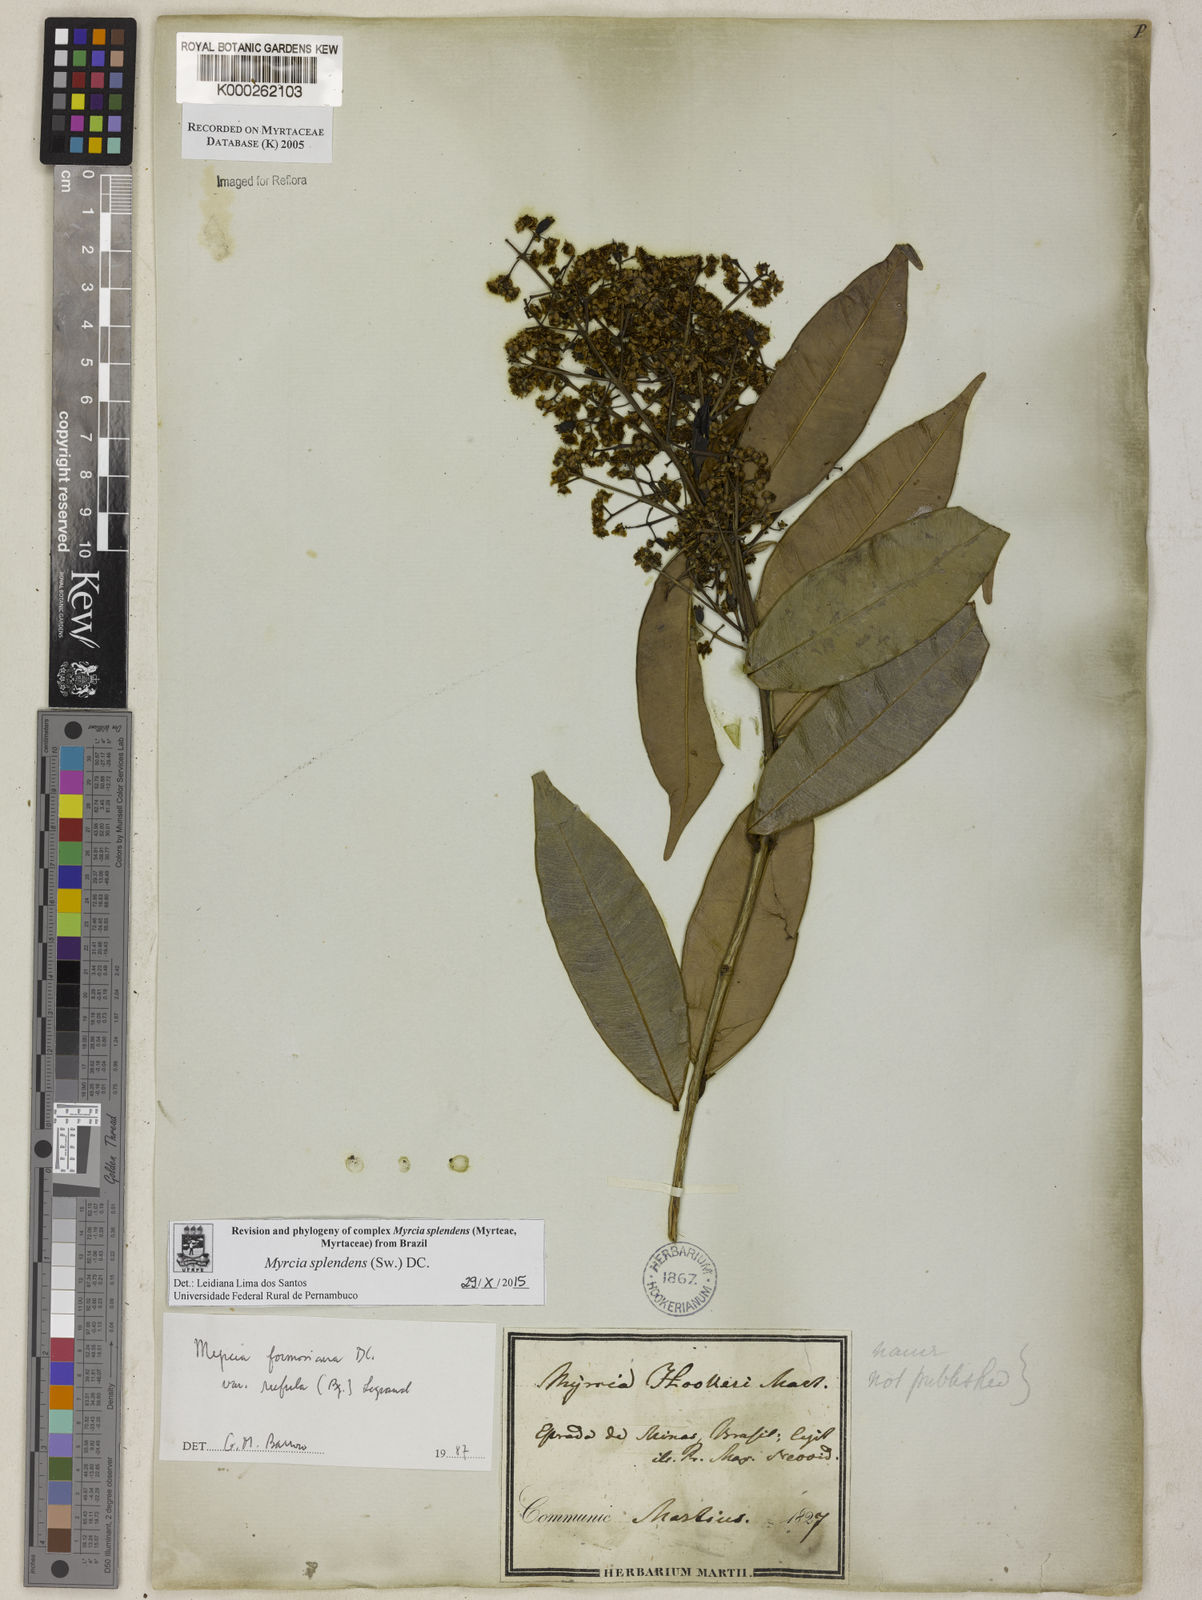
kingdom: Plantae
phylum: Tracheophyta
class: Magnoliopsida
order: Myrtales
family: Myrtaceae
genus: Myrcia
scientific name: Myrcia splendens
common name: Surinam cherry
